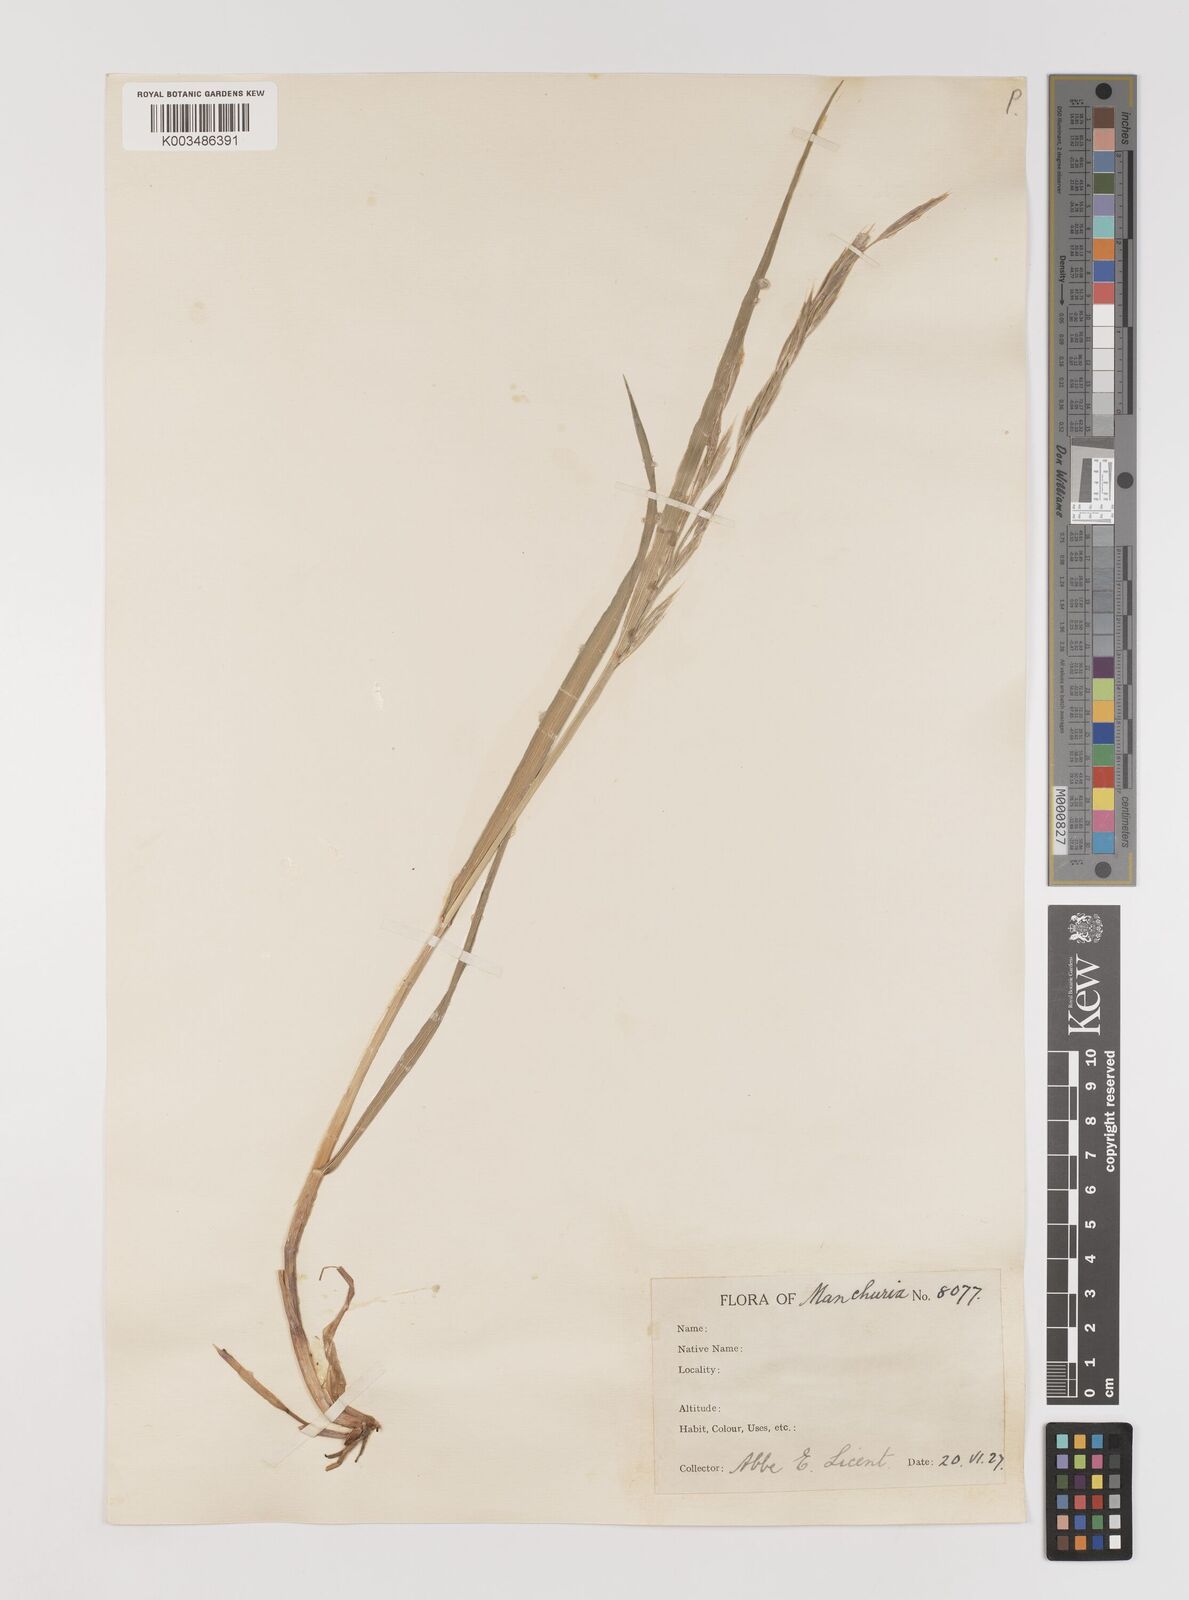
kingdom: Plantae
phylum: Tracheophyta
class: Liliopsida
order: Poales
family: Poaceae
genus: Bromus
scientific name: Bromus
